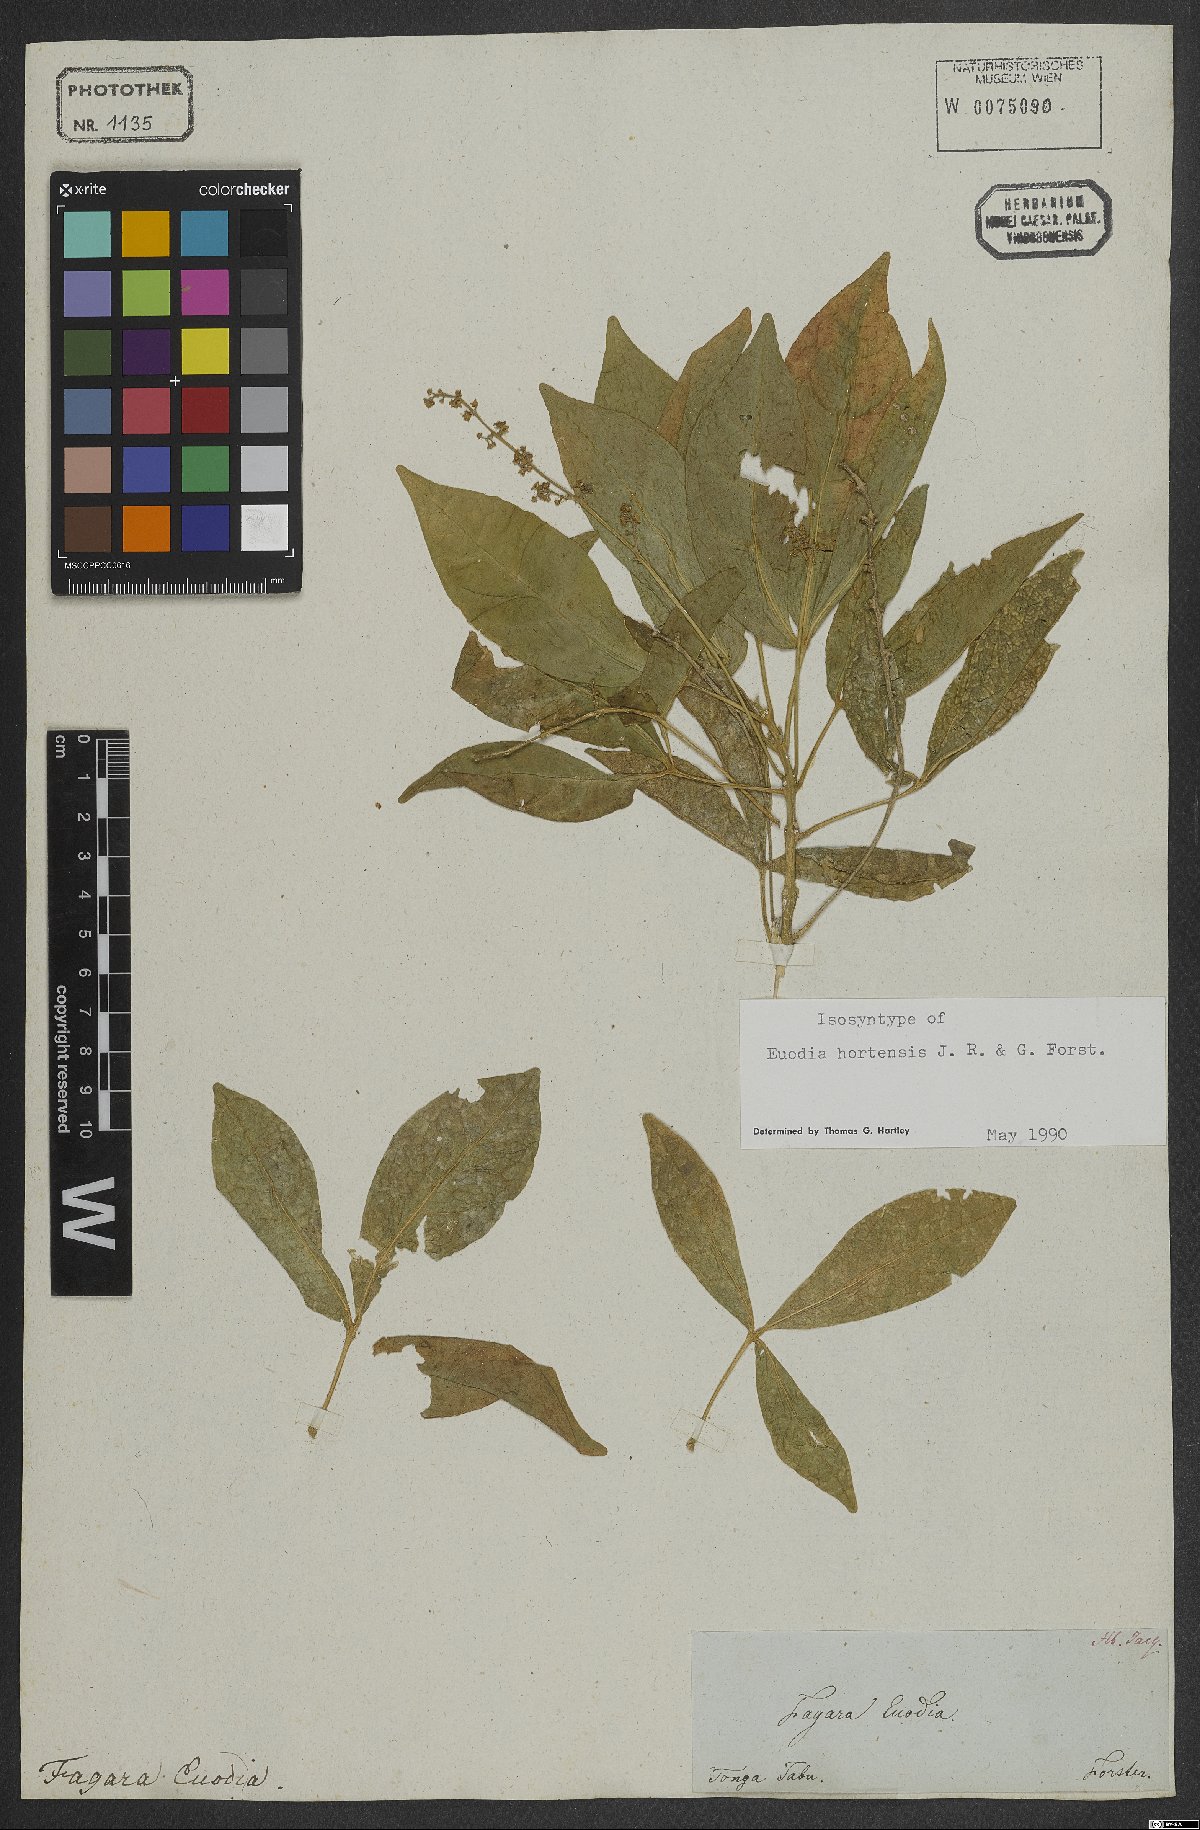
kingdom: Plantae
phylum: Tracheophyta
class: Magnoliopsida
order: Sapindales
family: Rutaceae
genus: Euodia
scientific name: Euodia hortensis
